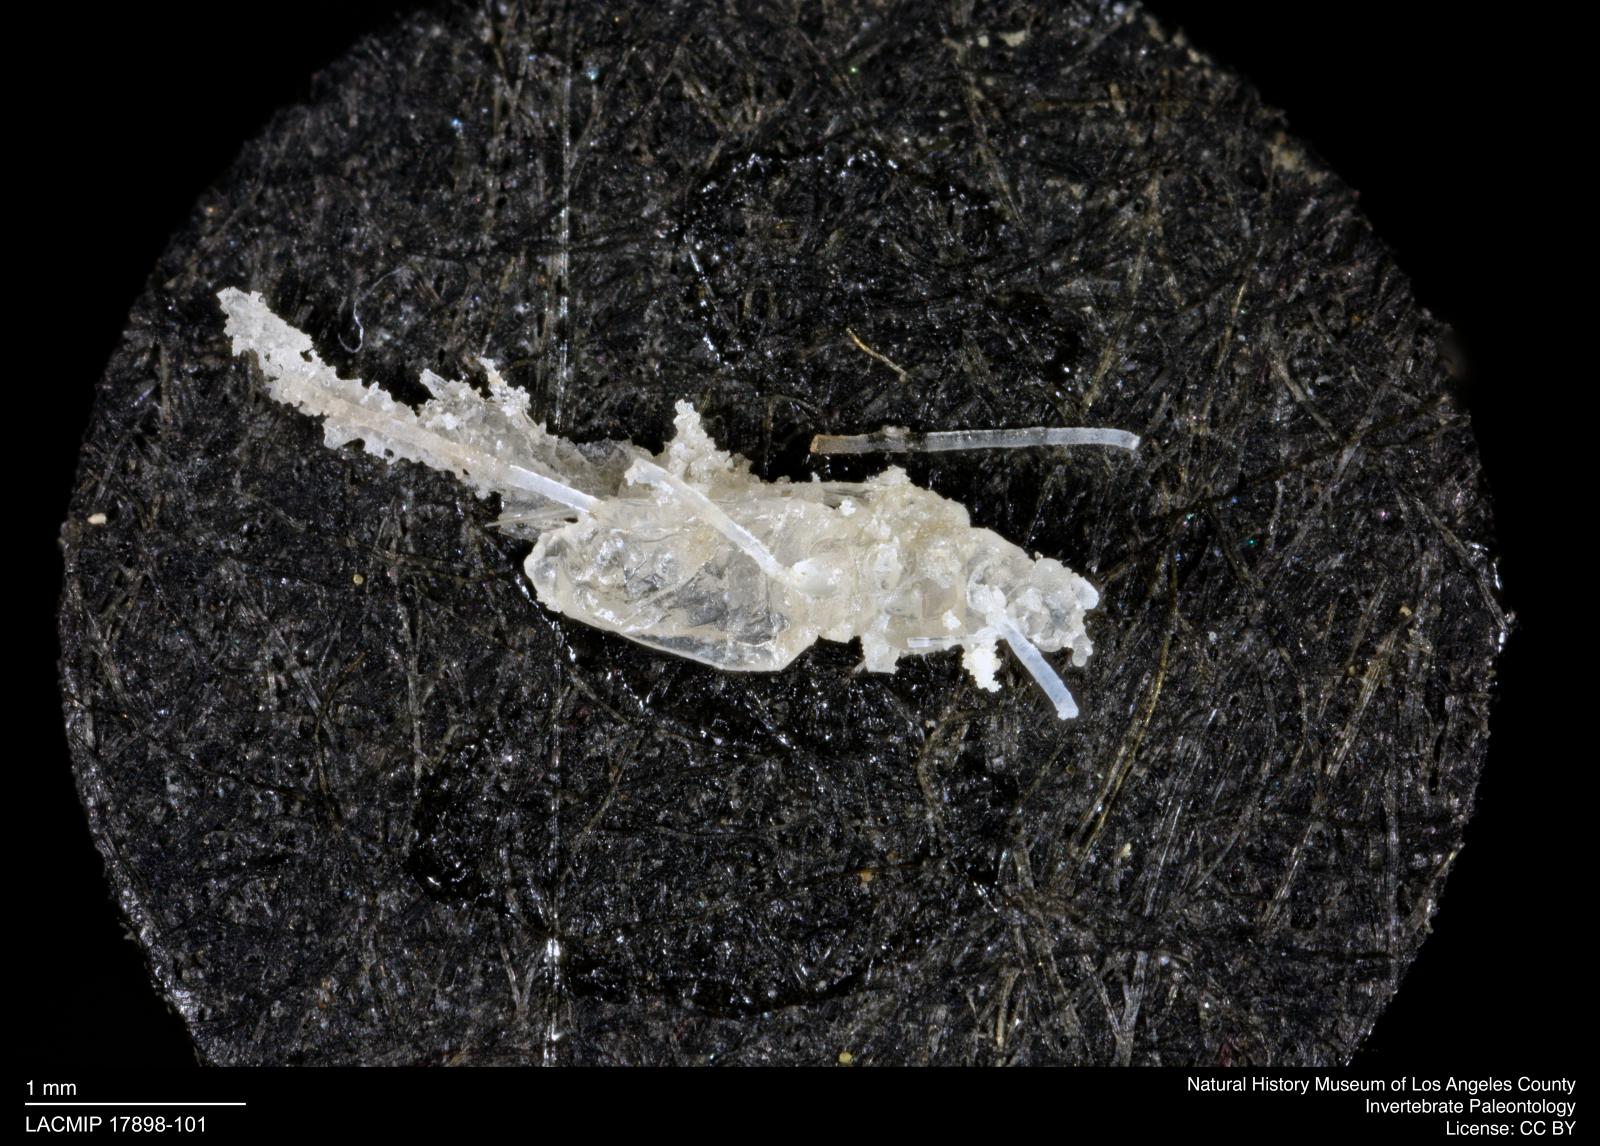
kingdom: Animalia
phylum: Arthropoda
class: Insecta
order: Hemiptera
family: Aphididae
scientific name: Aphididae
